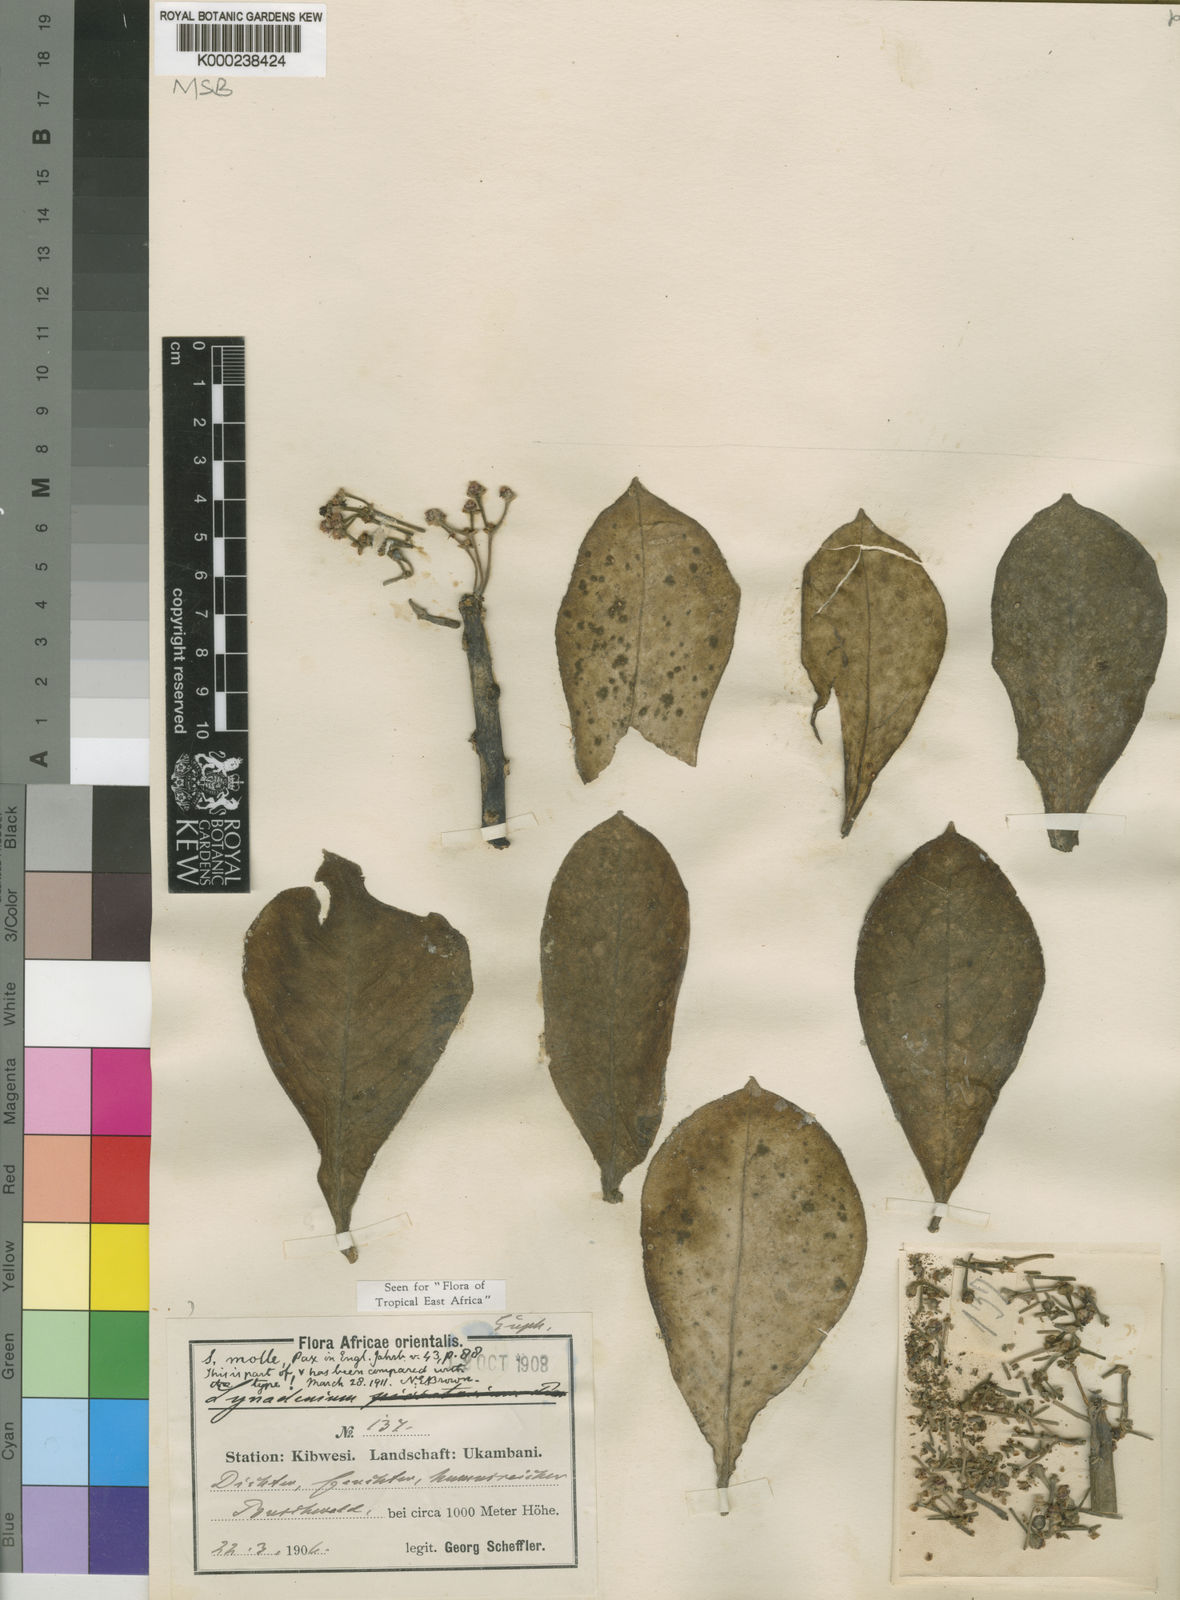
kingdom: Plantae
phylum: Tracheophyta
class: Magnoliopsida
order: Malpighiales
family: Euphorbiaceae
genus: Euphorbia
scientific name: Euphorbia pseudomollis
